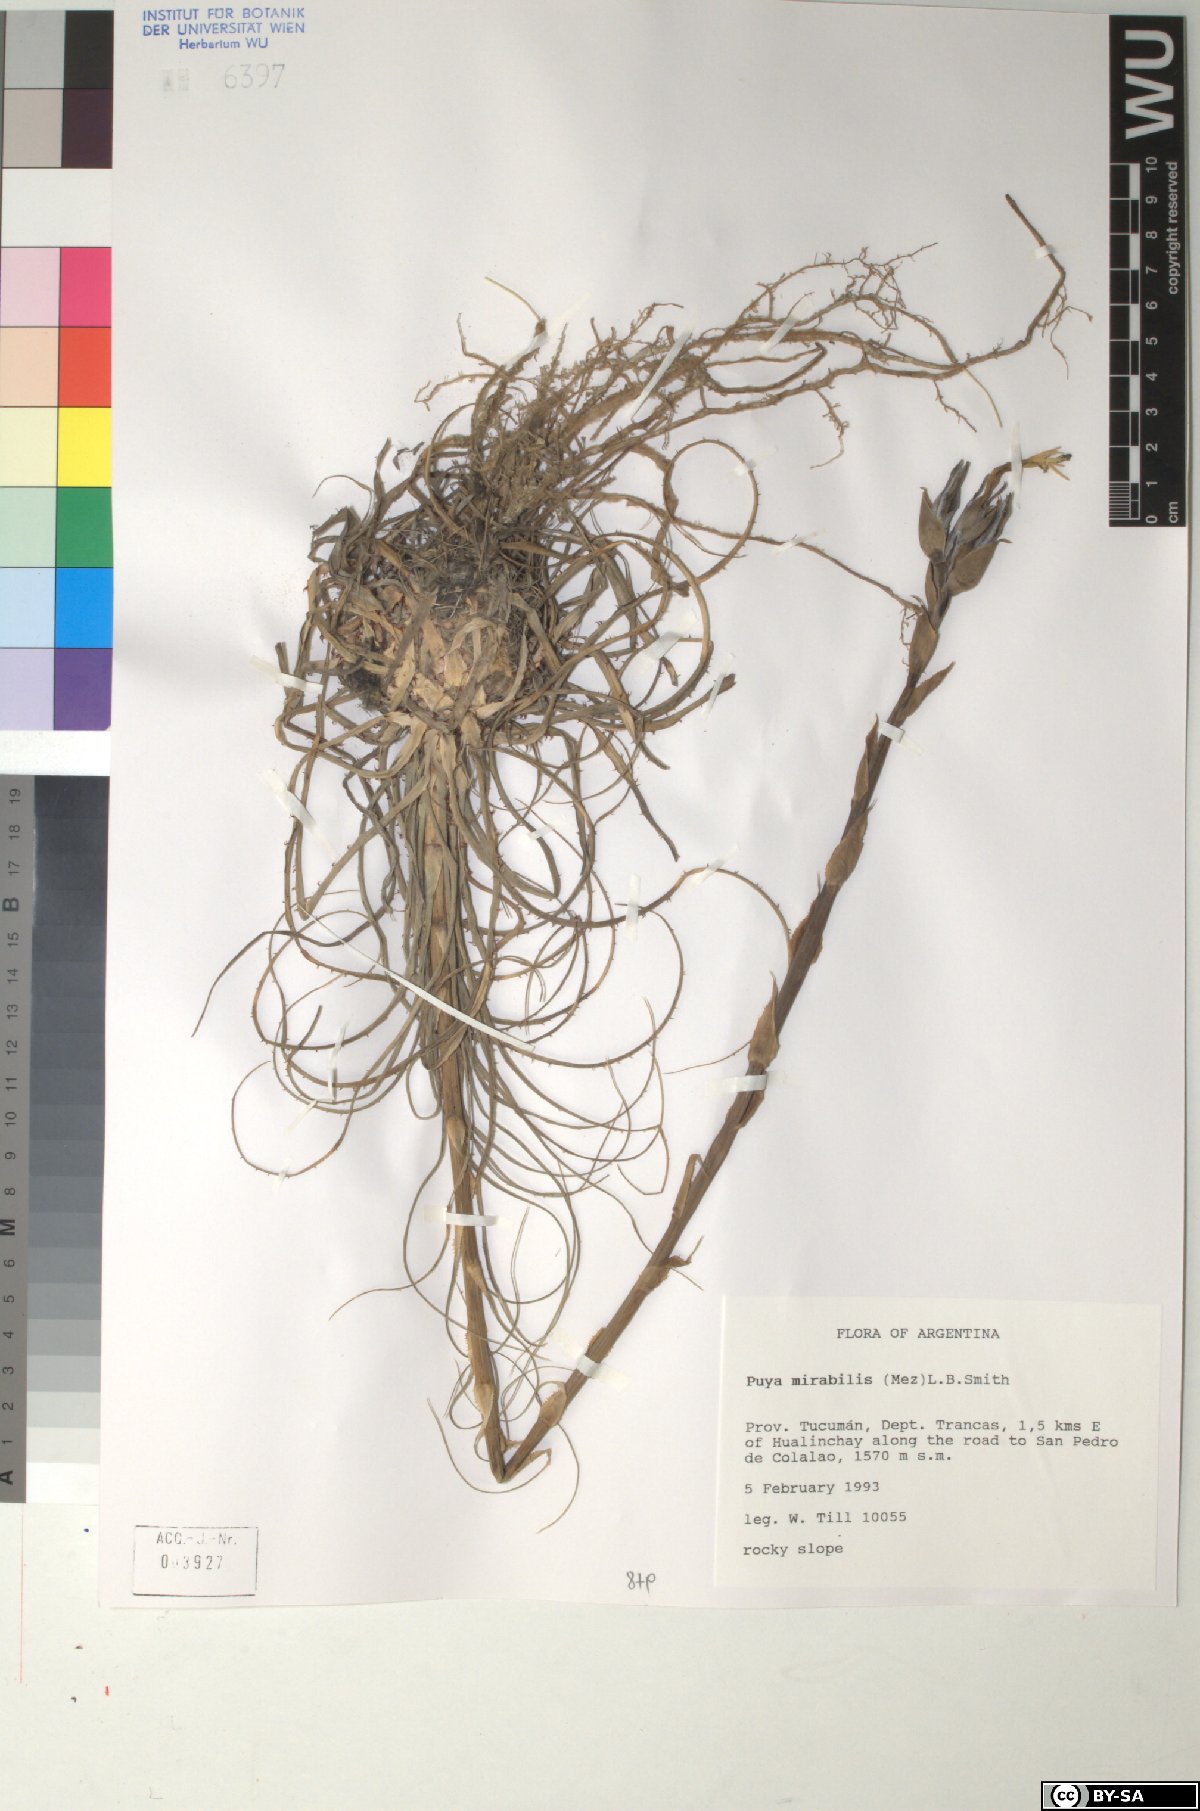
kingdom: Plantae
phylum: Tracheophyta
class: Liliopsida
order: Poales
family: Bromeliaceae
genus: Puya
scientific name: Puya mirabilis
